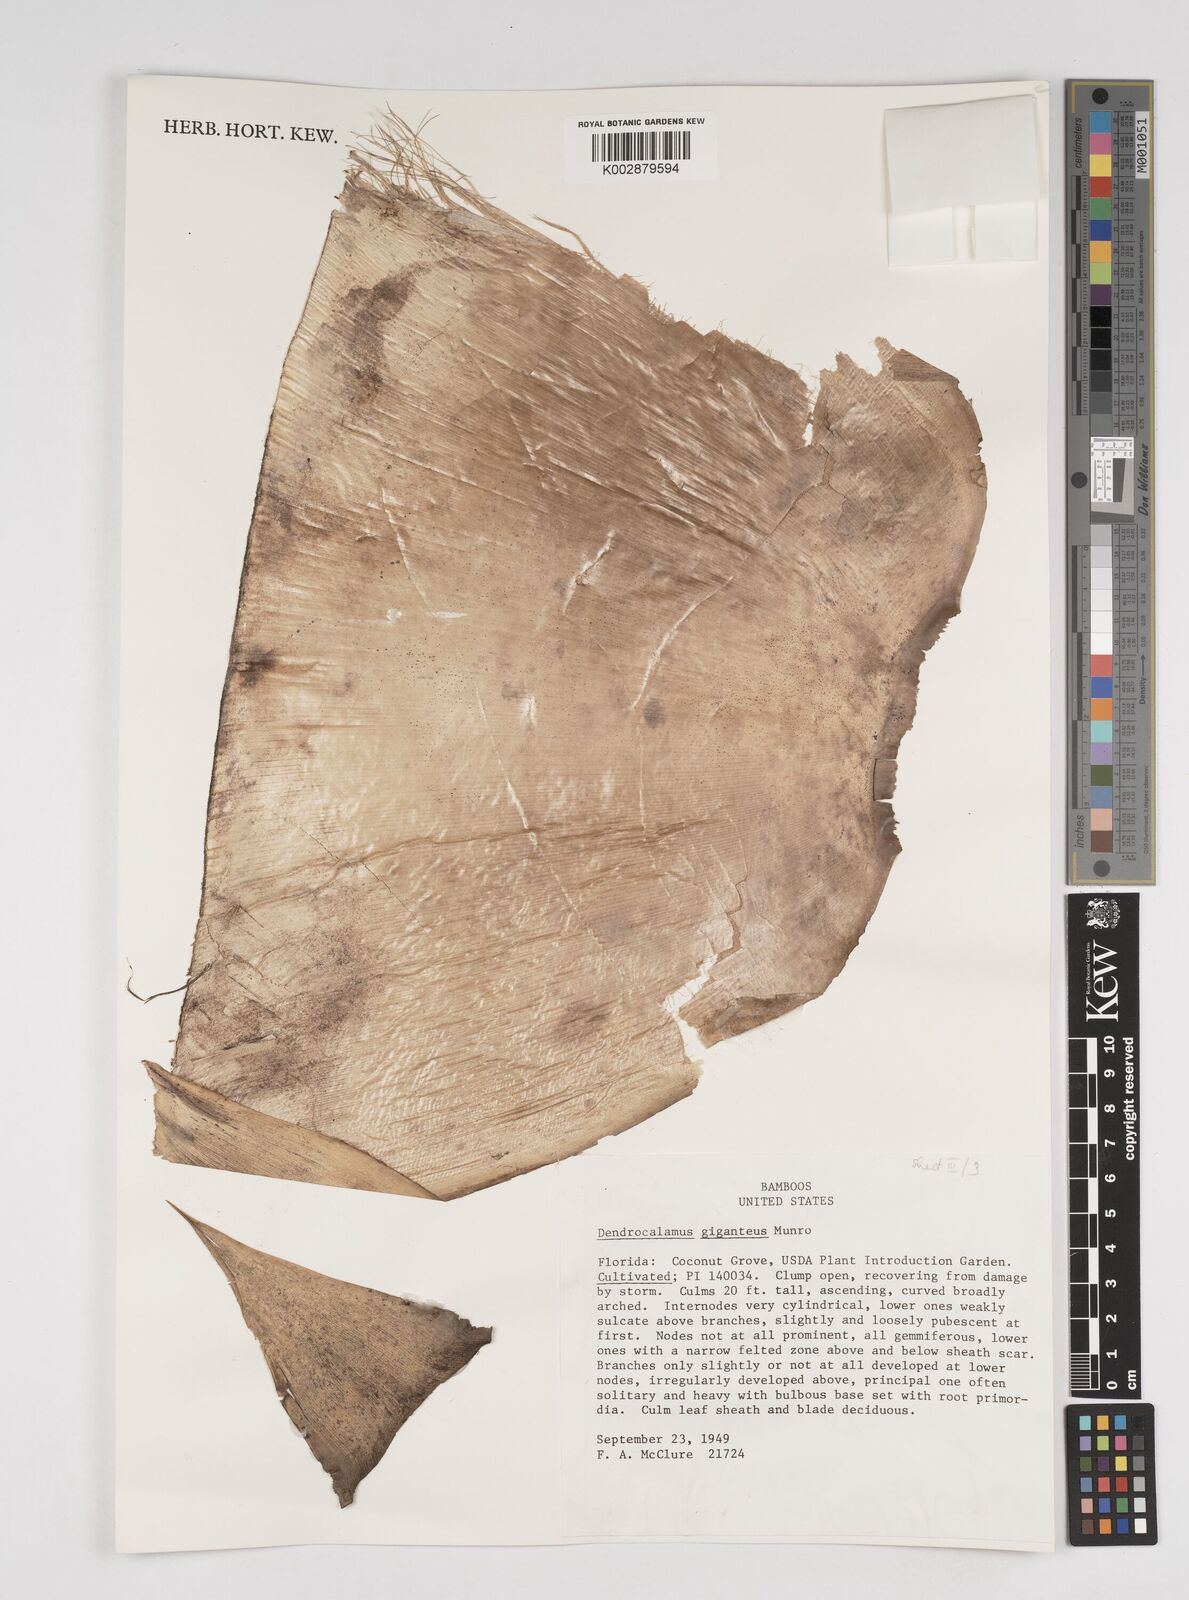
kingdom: Plantae
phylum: Tracheophyta
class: Liliopsida
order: Poales
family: Poaceae
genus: Dendrocalamus
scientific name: Dendrocalamus giganteus
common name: Giant bamboo
